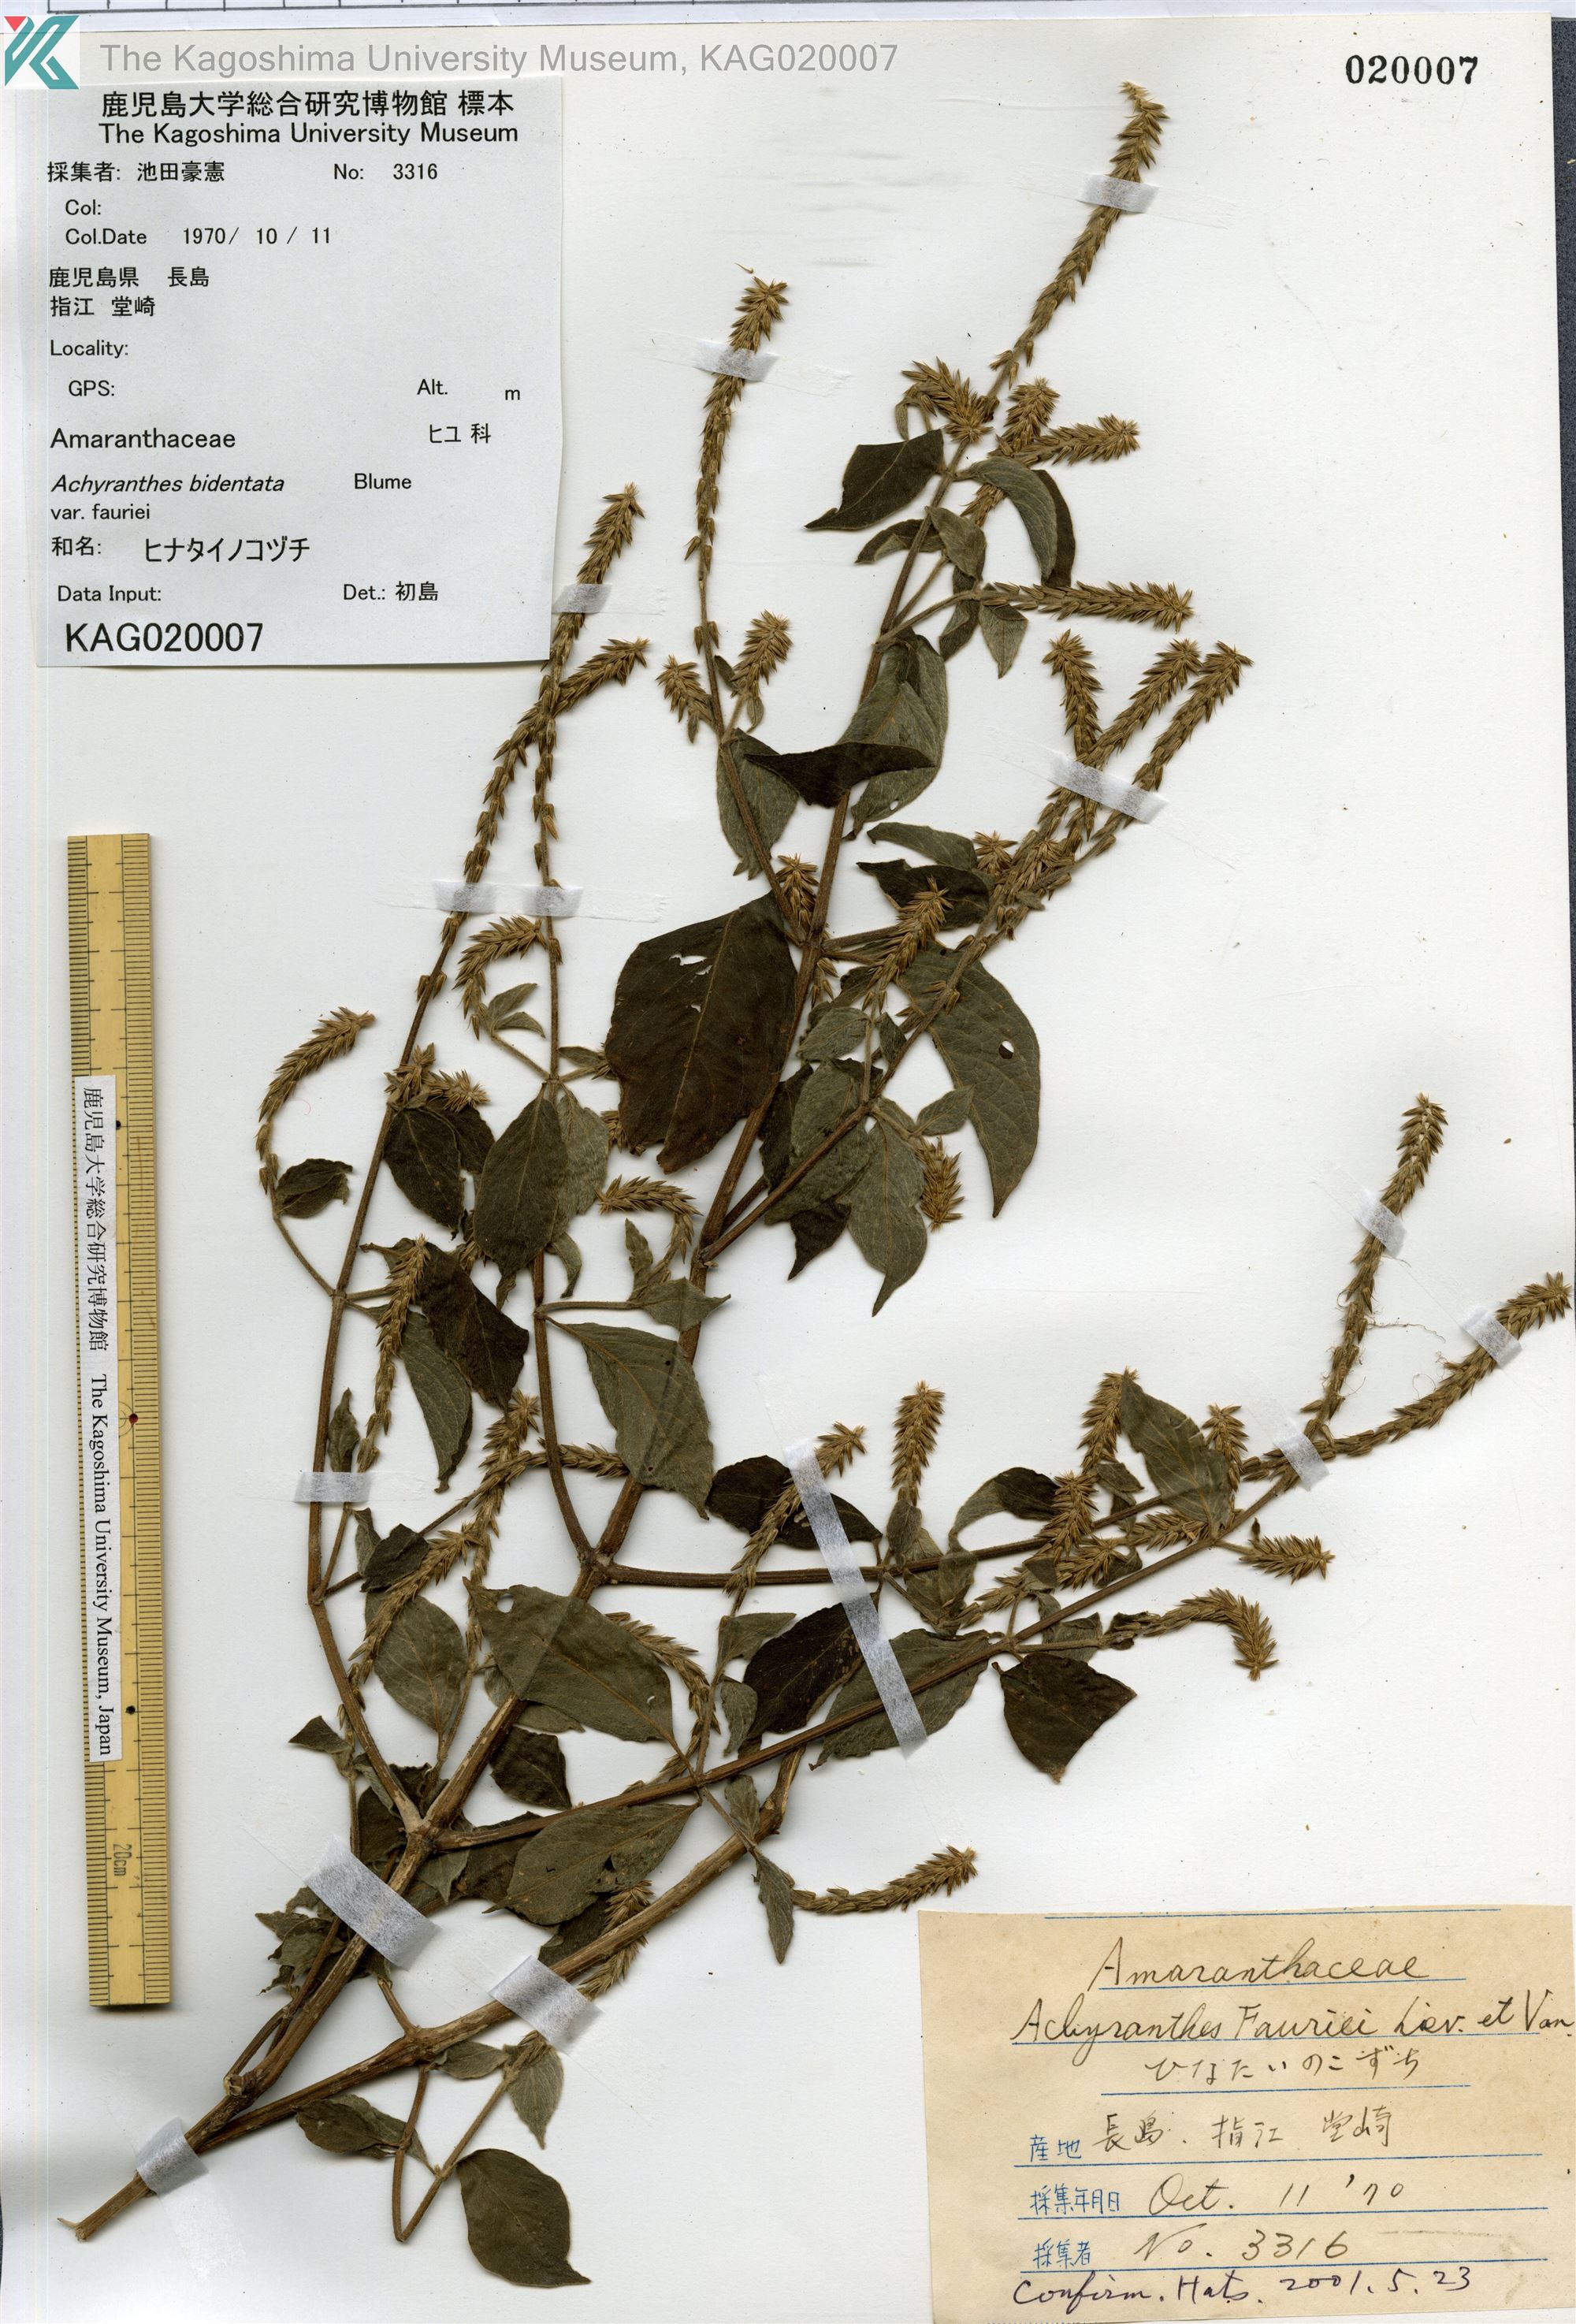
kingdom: Plantae
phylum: Tracheophyta
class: Magnoliopsida
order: Caryophyllales
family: Amaranthaceae
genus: Achyranthes
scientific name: Achyranthes bidentata
